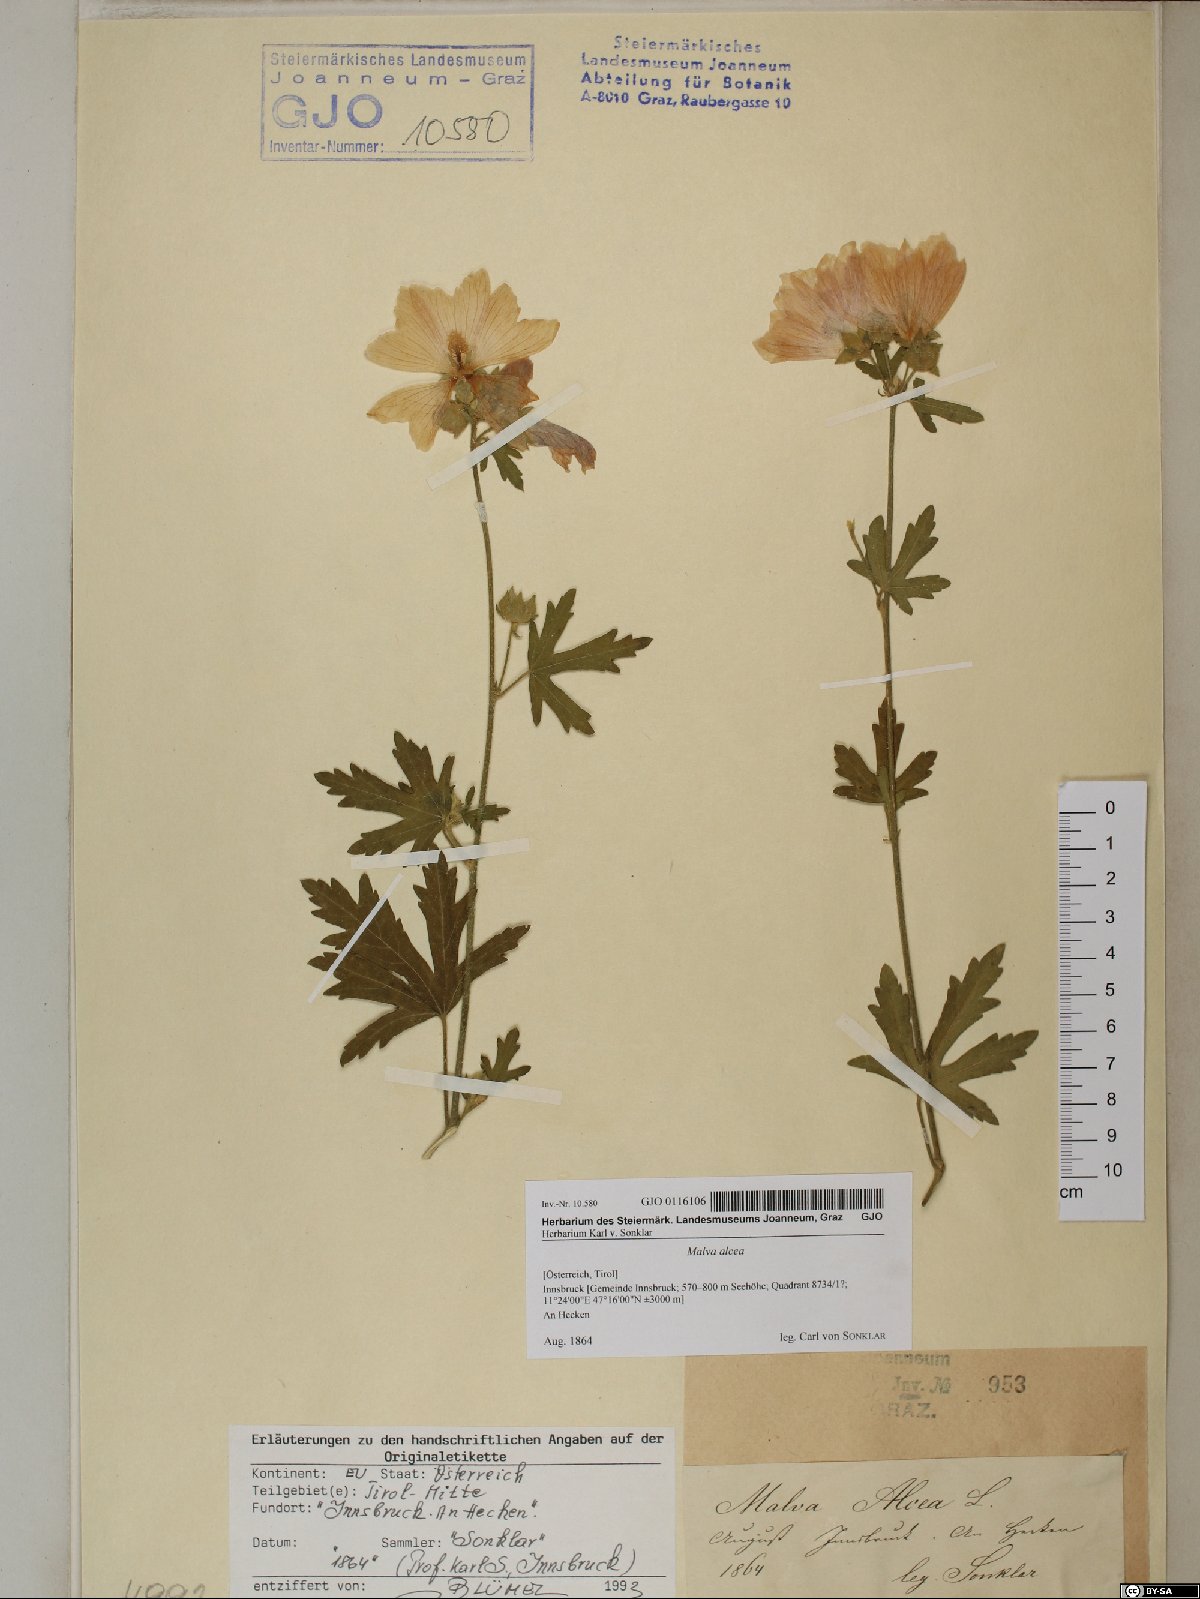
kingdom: Plantae
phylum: Tracheophyta
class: Magnoliopsida
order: Malvales
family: Malvaceae
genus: Malva
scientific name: Malva alcea
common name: Greater musk-mallow
